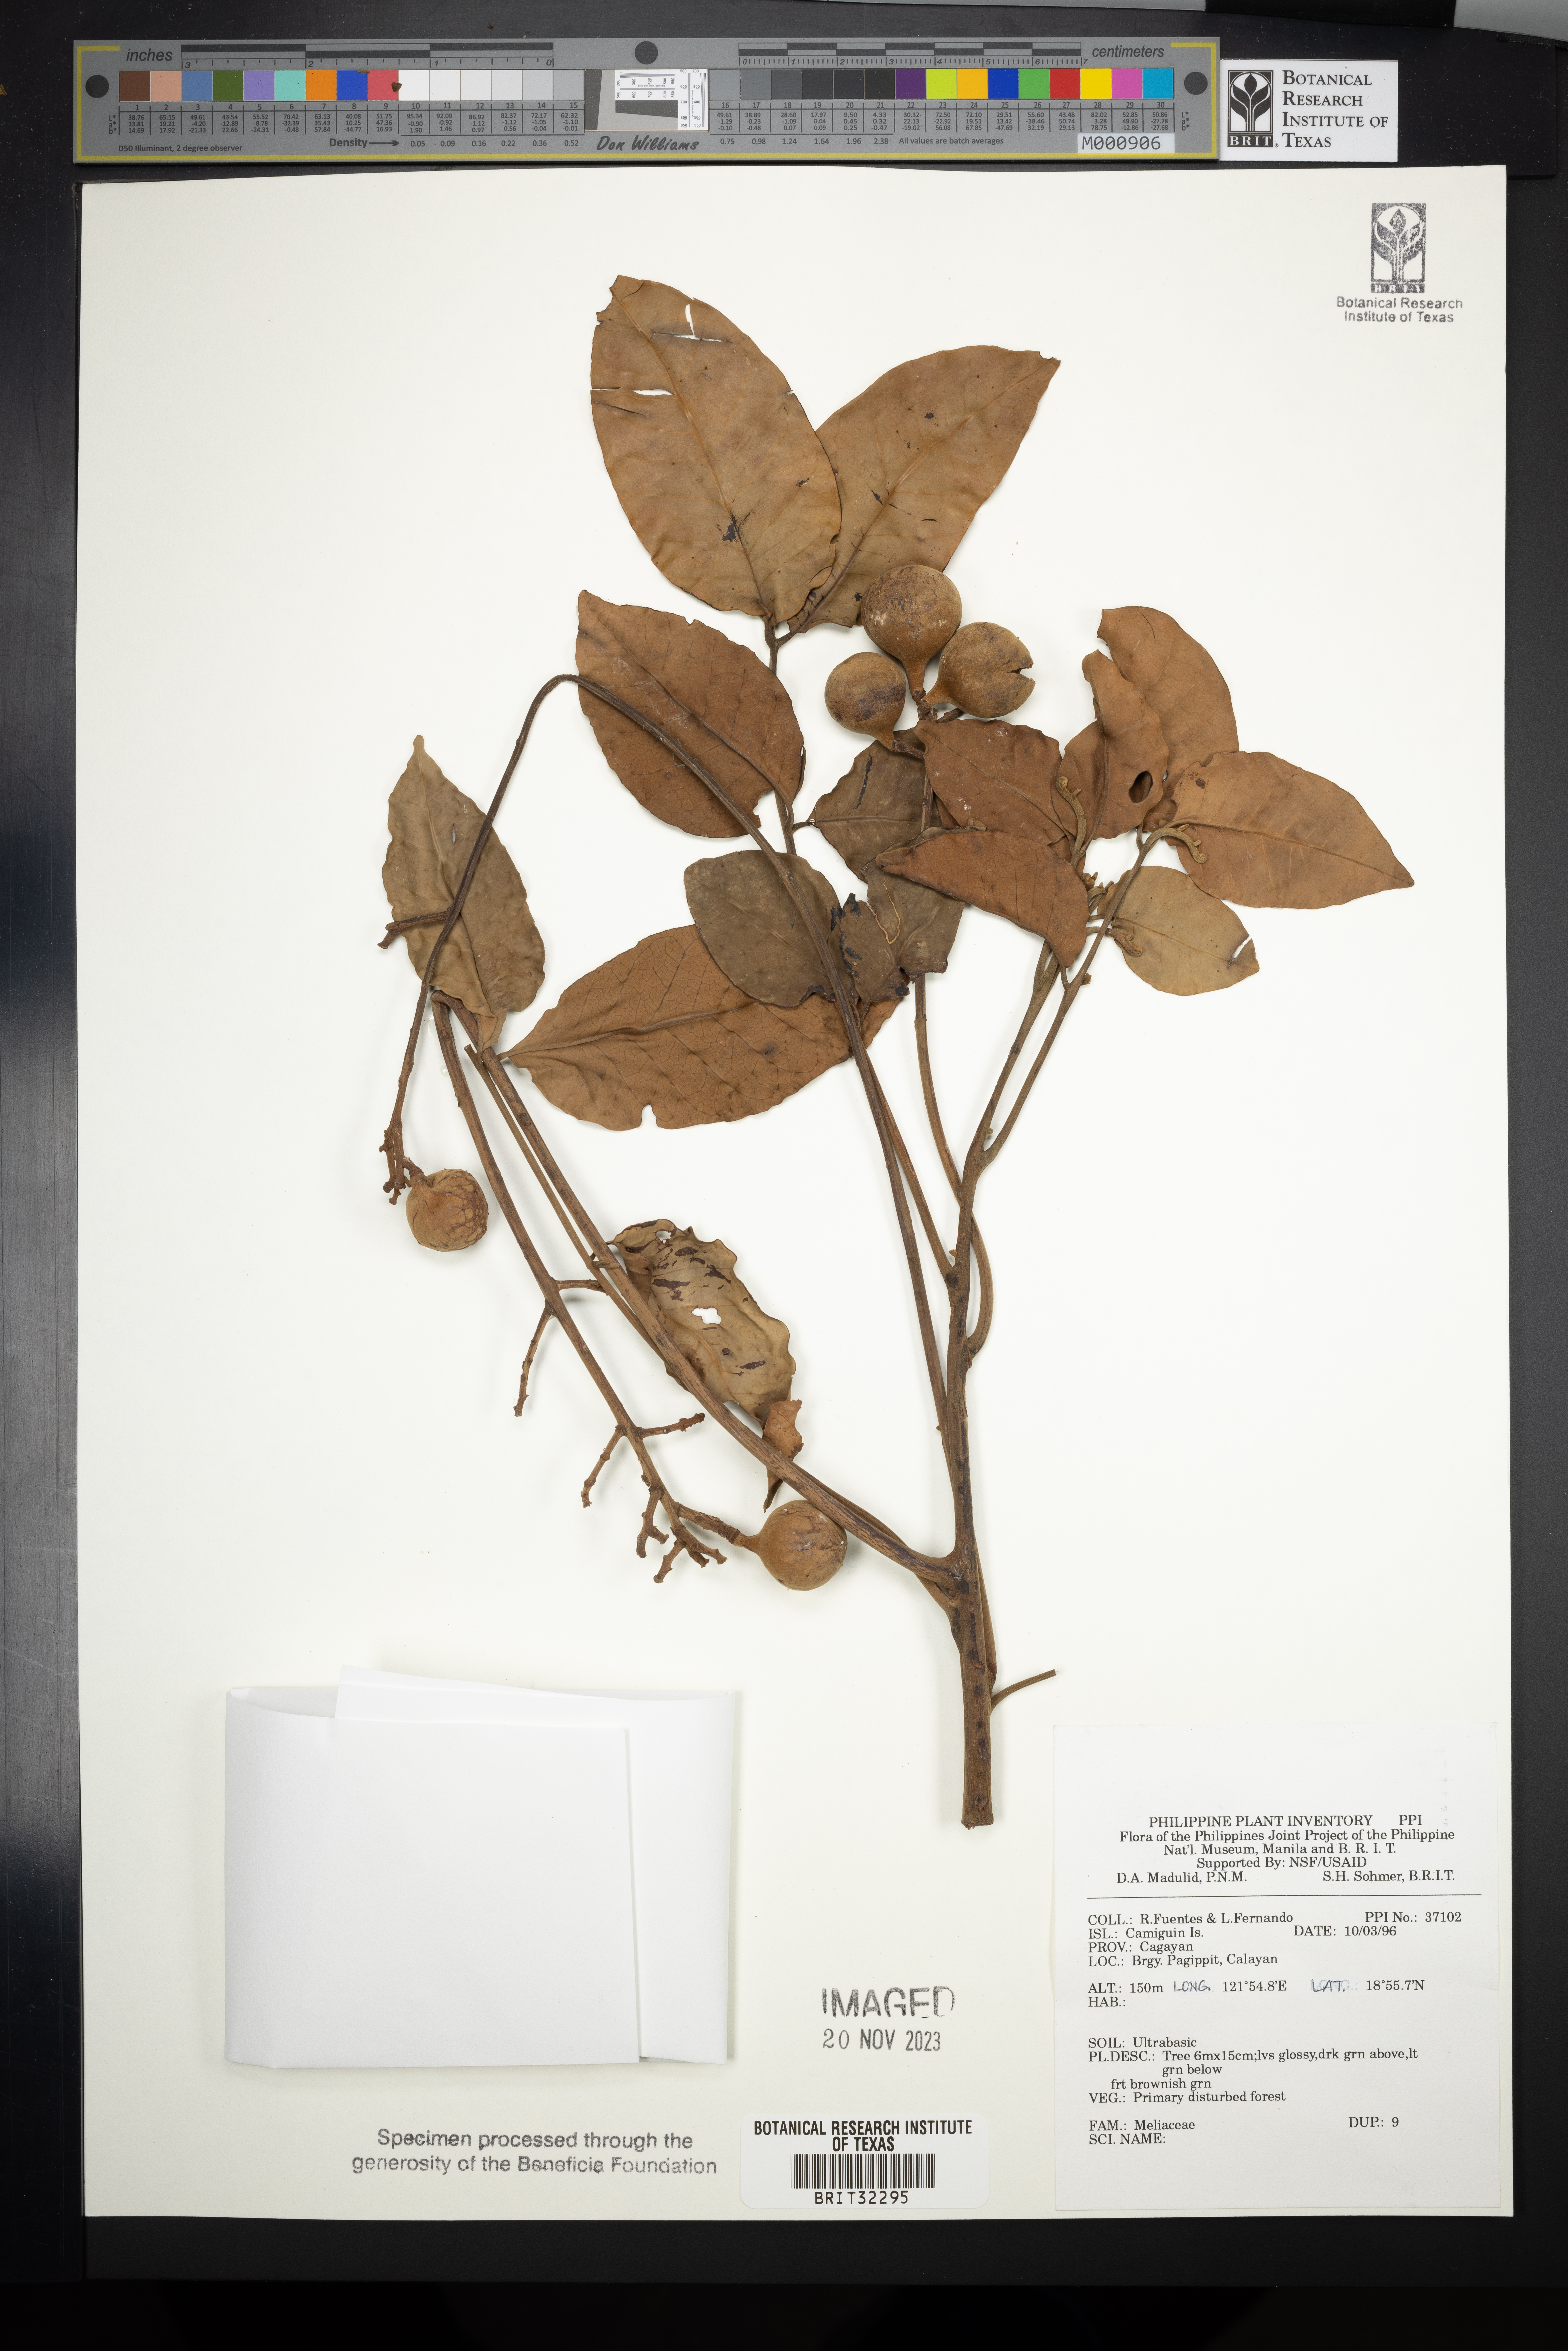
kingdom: Plantae
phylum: Tracheophyta
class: Magnoliopsida
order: Sapindales
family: Meliaceae
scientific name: Meliaceae
